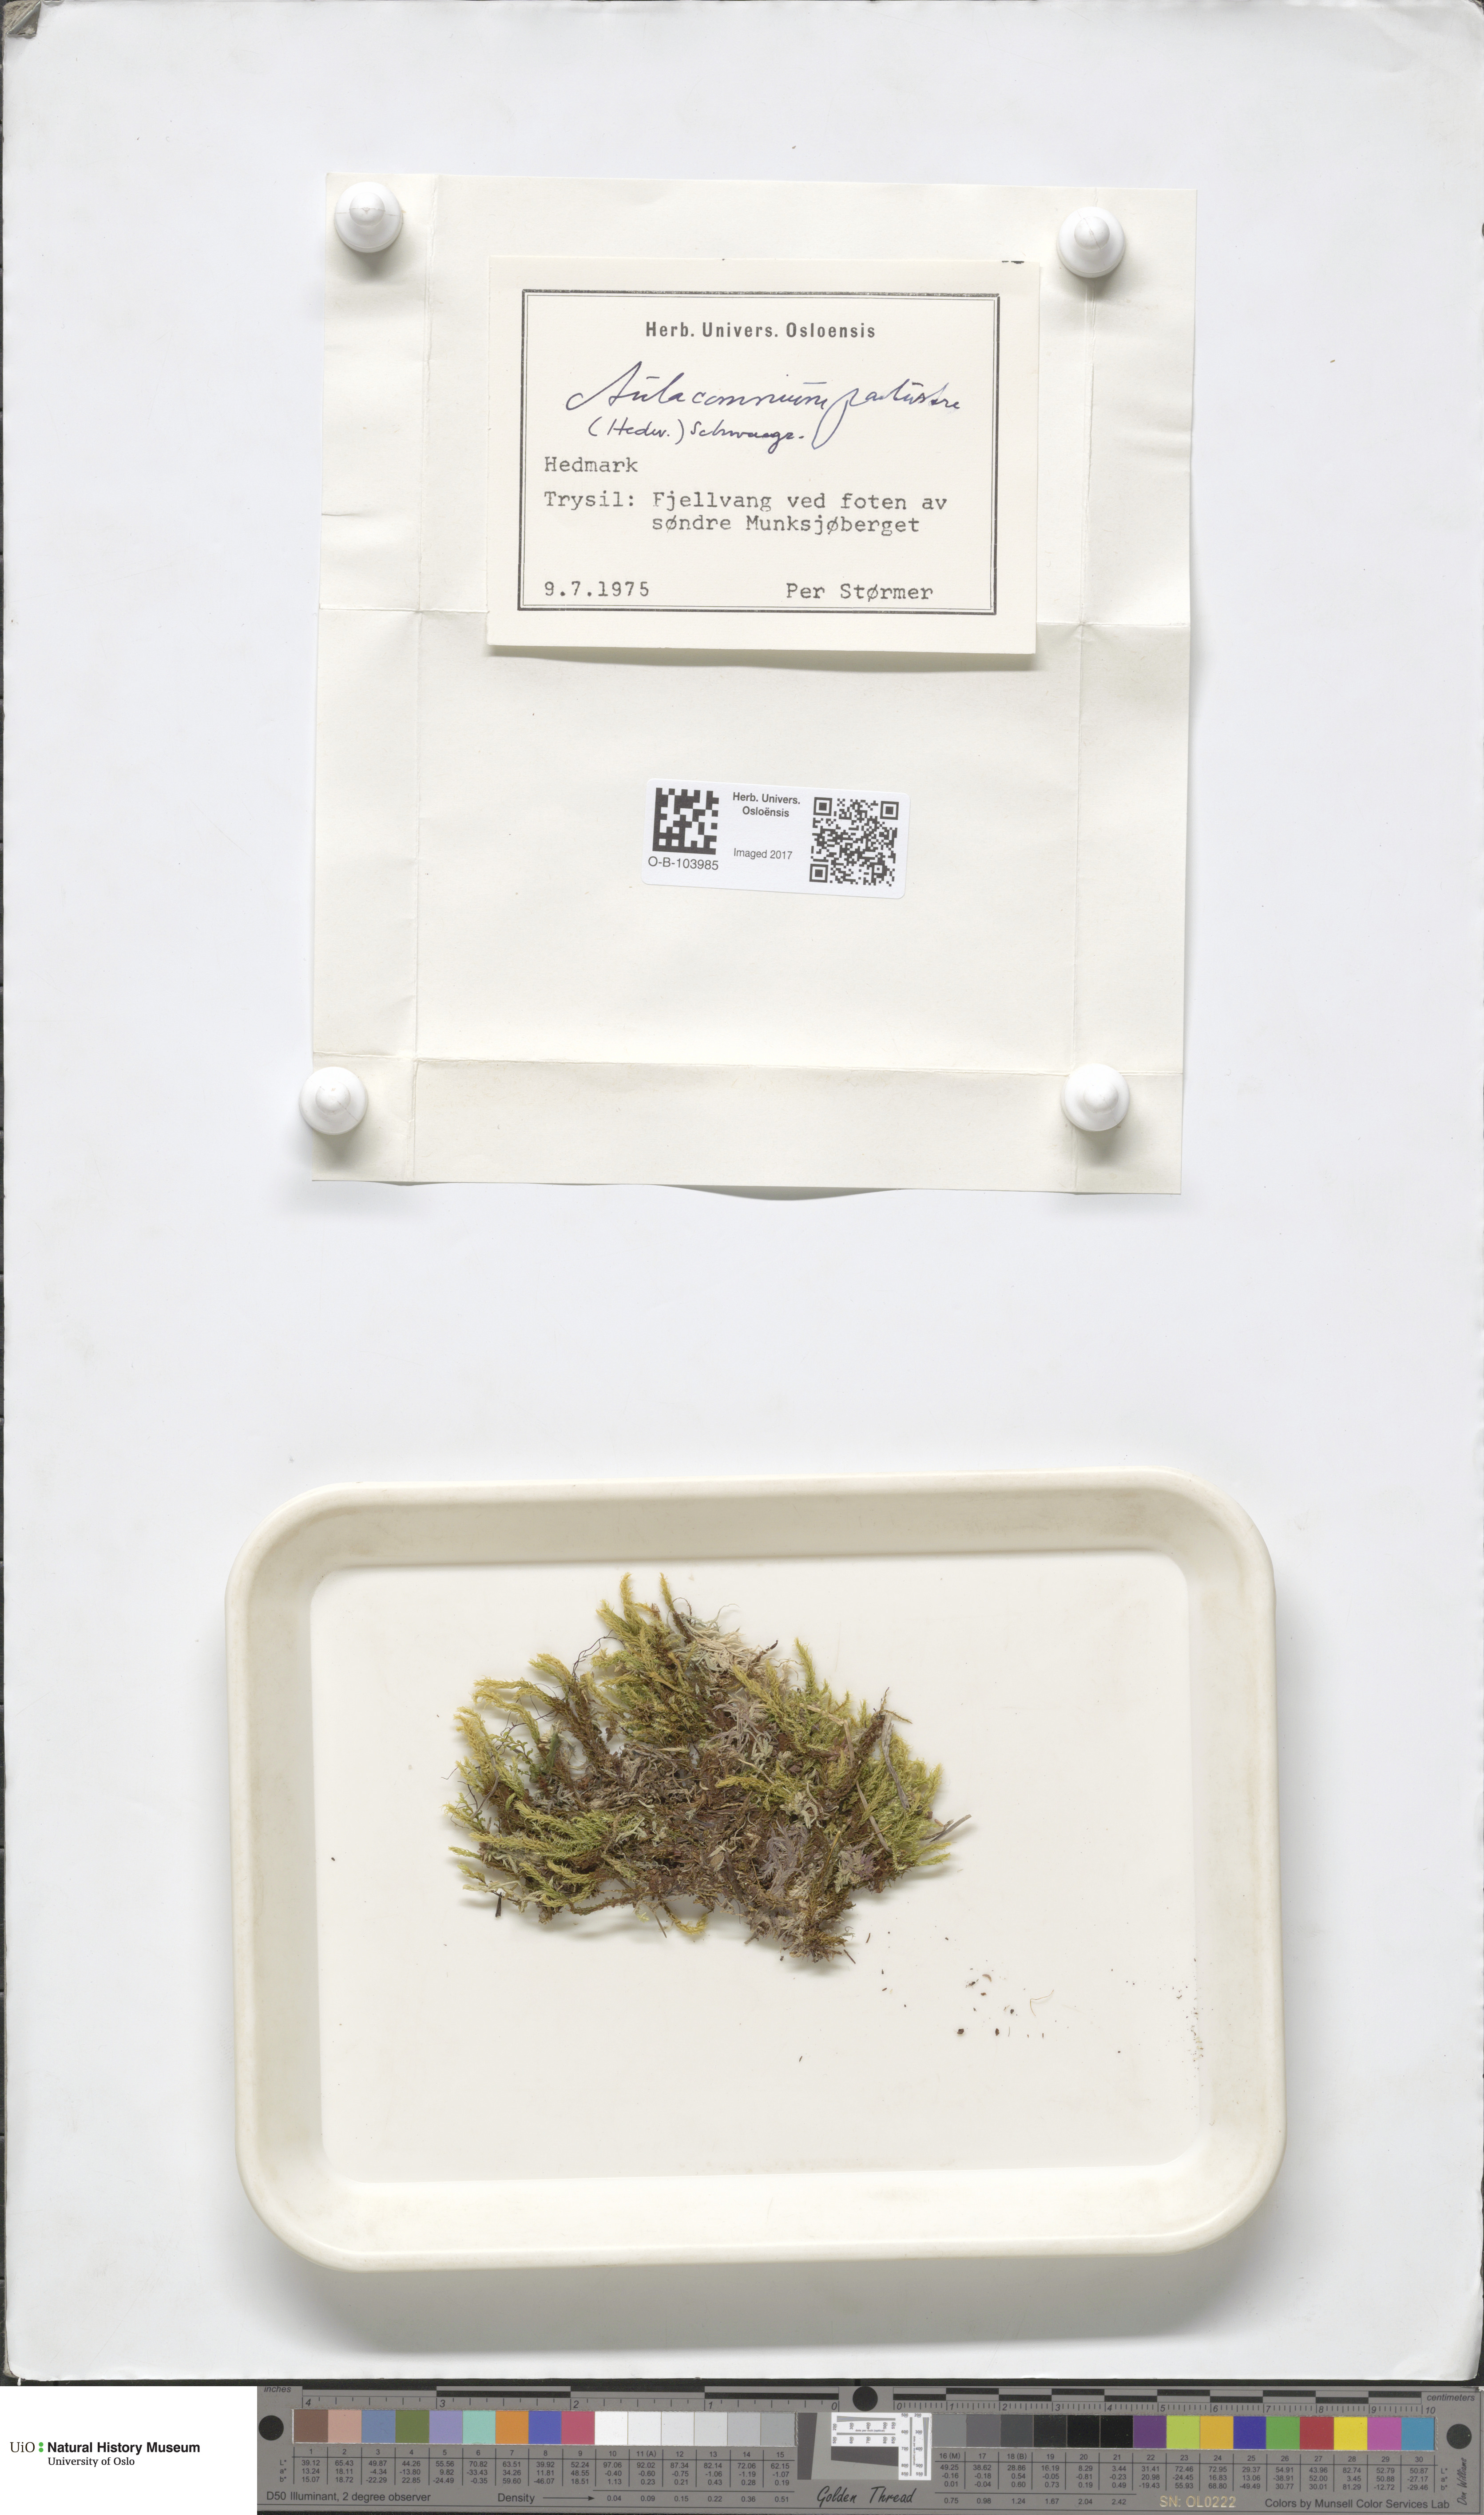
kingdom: Plantae
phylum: Bryophyta
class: Bryopsida
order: Aulacomniales
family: Aulacomniaceae
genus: Aulacomnium
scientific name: Aulacomnium palustre
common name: Bog groove-moss
